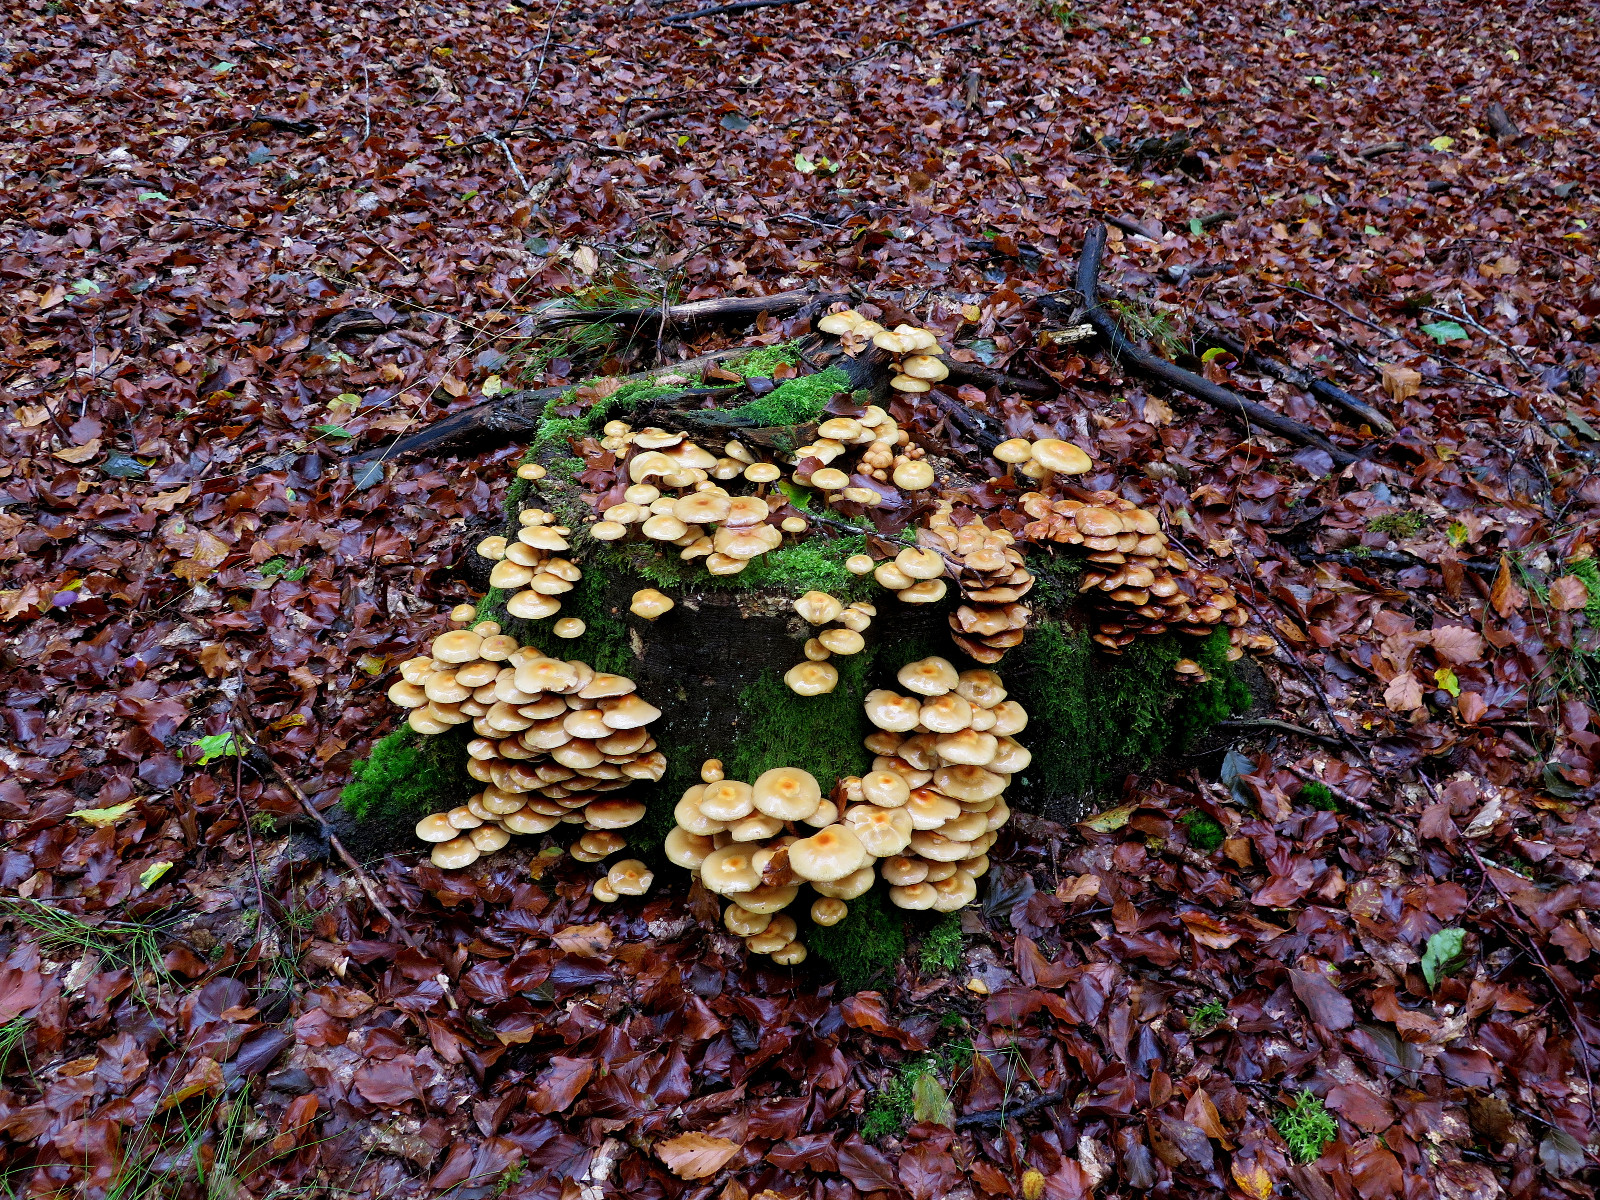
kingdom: Fungi
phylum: Basidiomycota
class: Agaricomycetes
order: Agaricales
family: Strophariaceae
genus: Kuehneromyces
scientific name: Kuehneromyces mutabilis
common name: foranderlig skælhat
